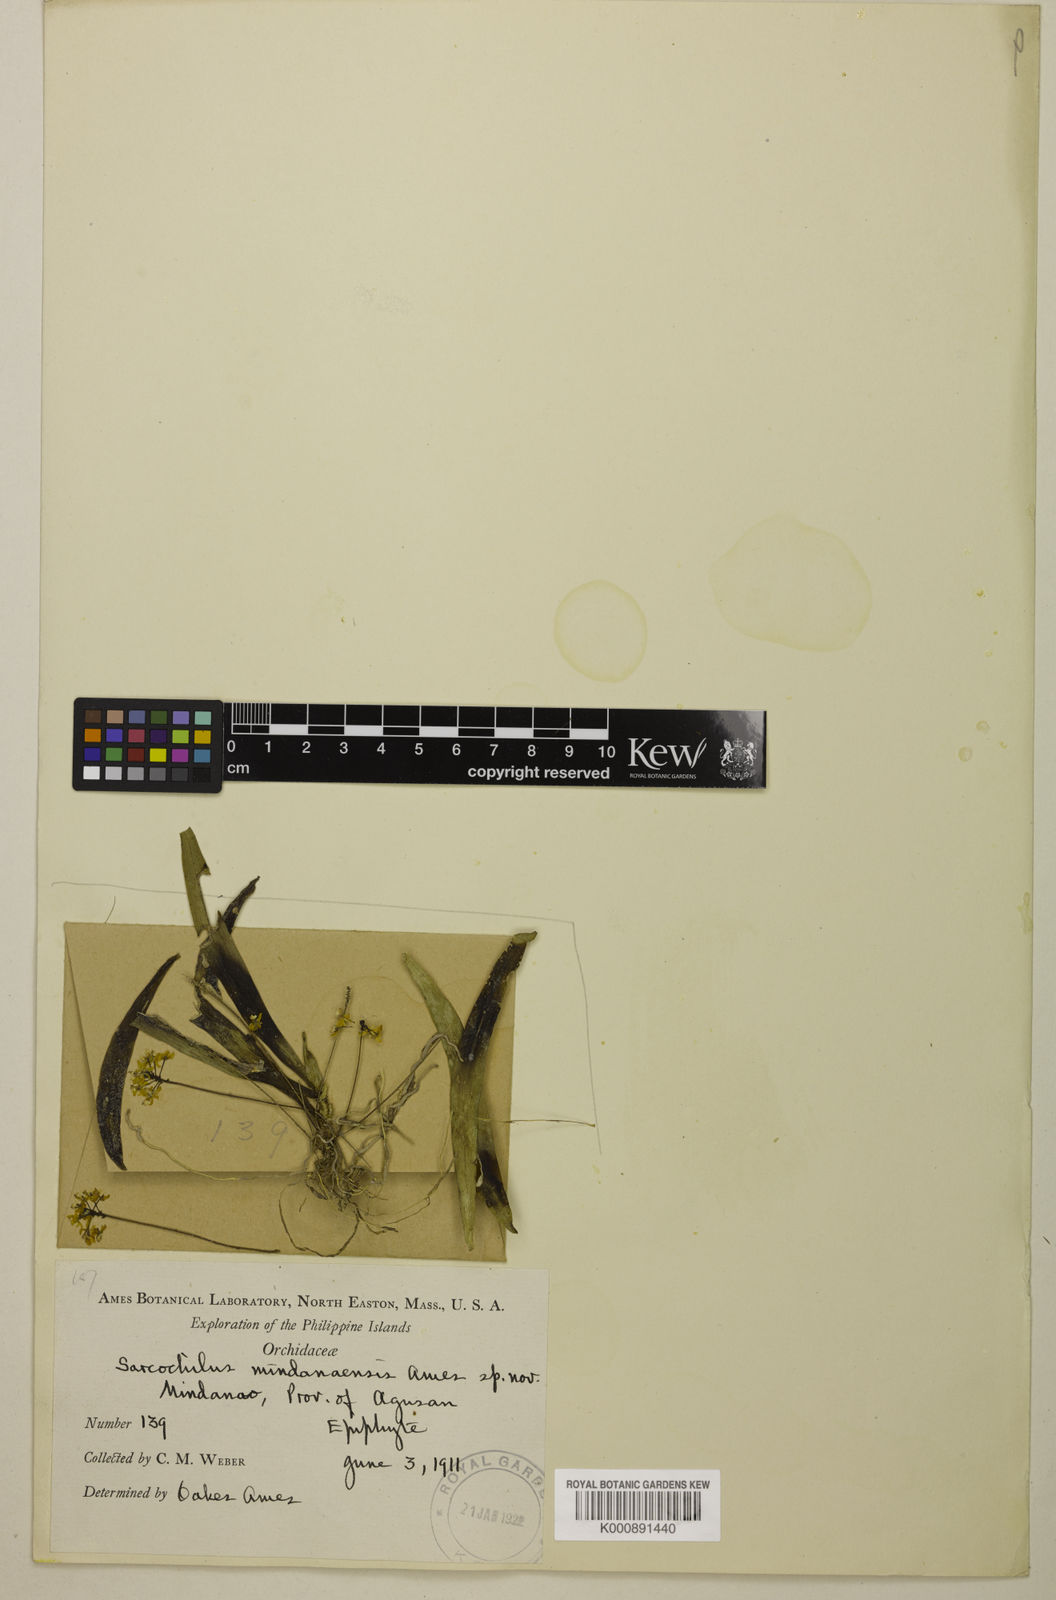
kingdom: Plantae
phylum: Tracheophyta
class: Liliopsida
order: Asparagales
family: Orchidaceae
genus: Grosourdya
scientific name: Grosourdya mindanaensis
